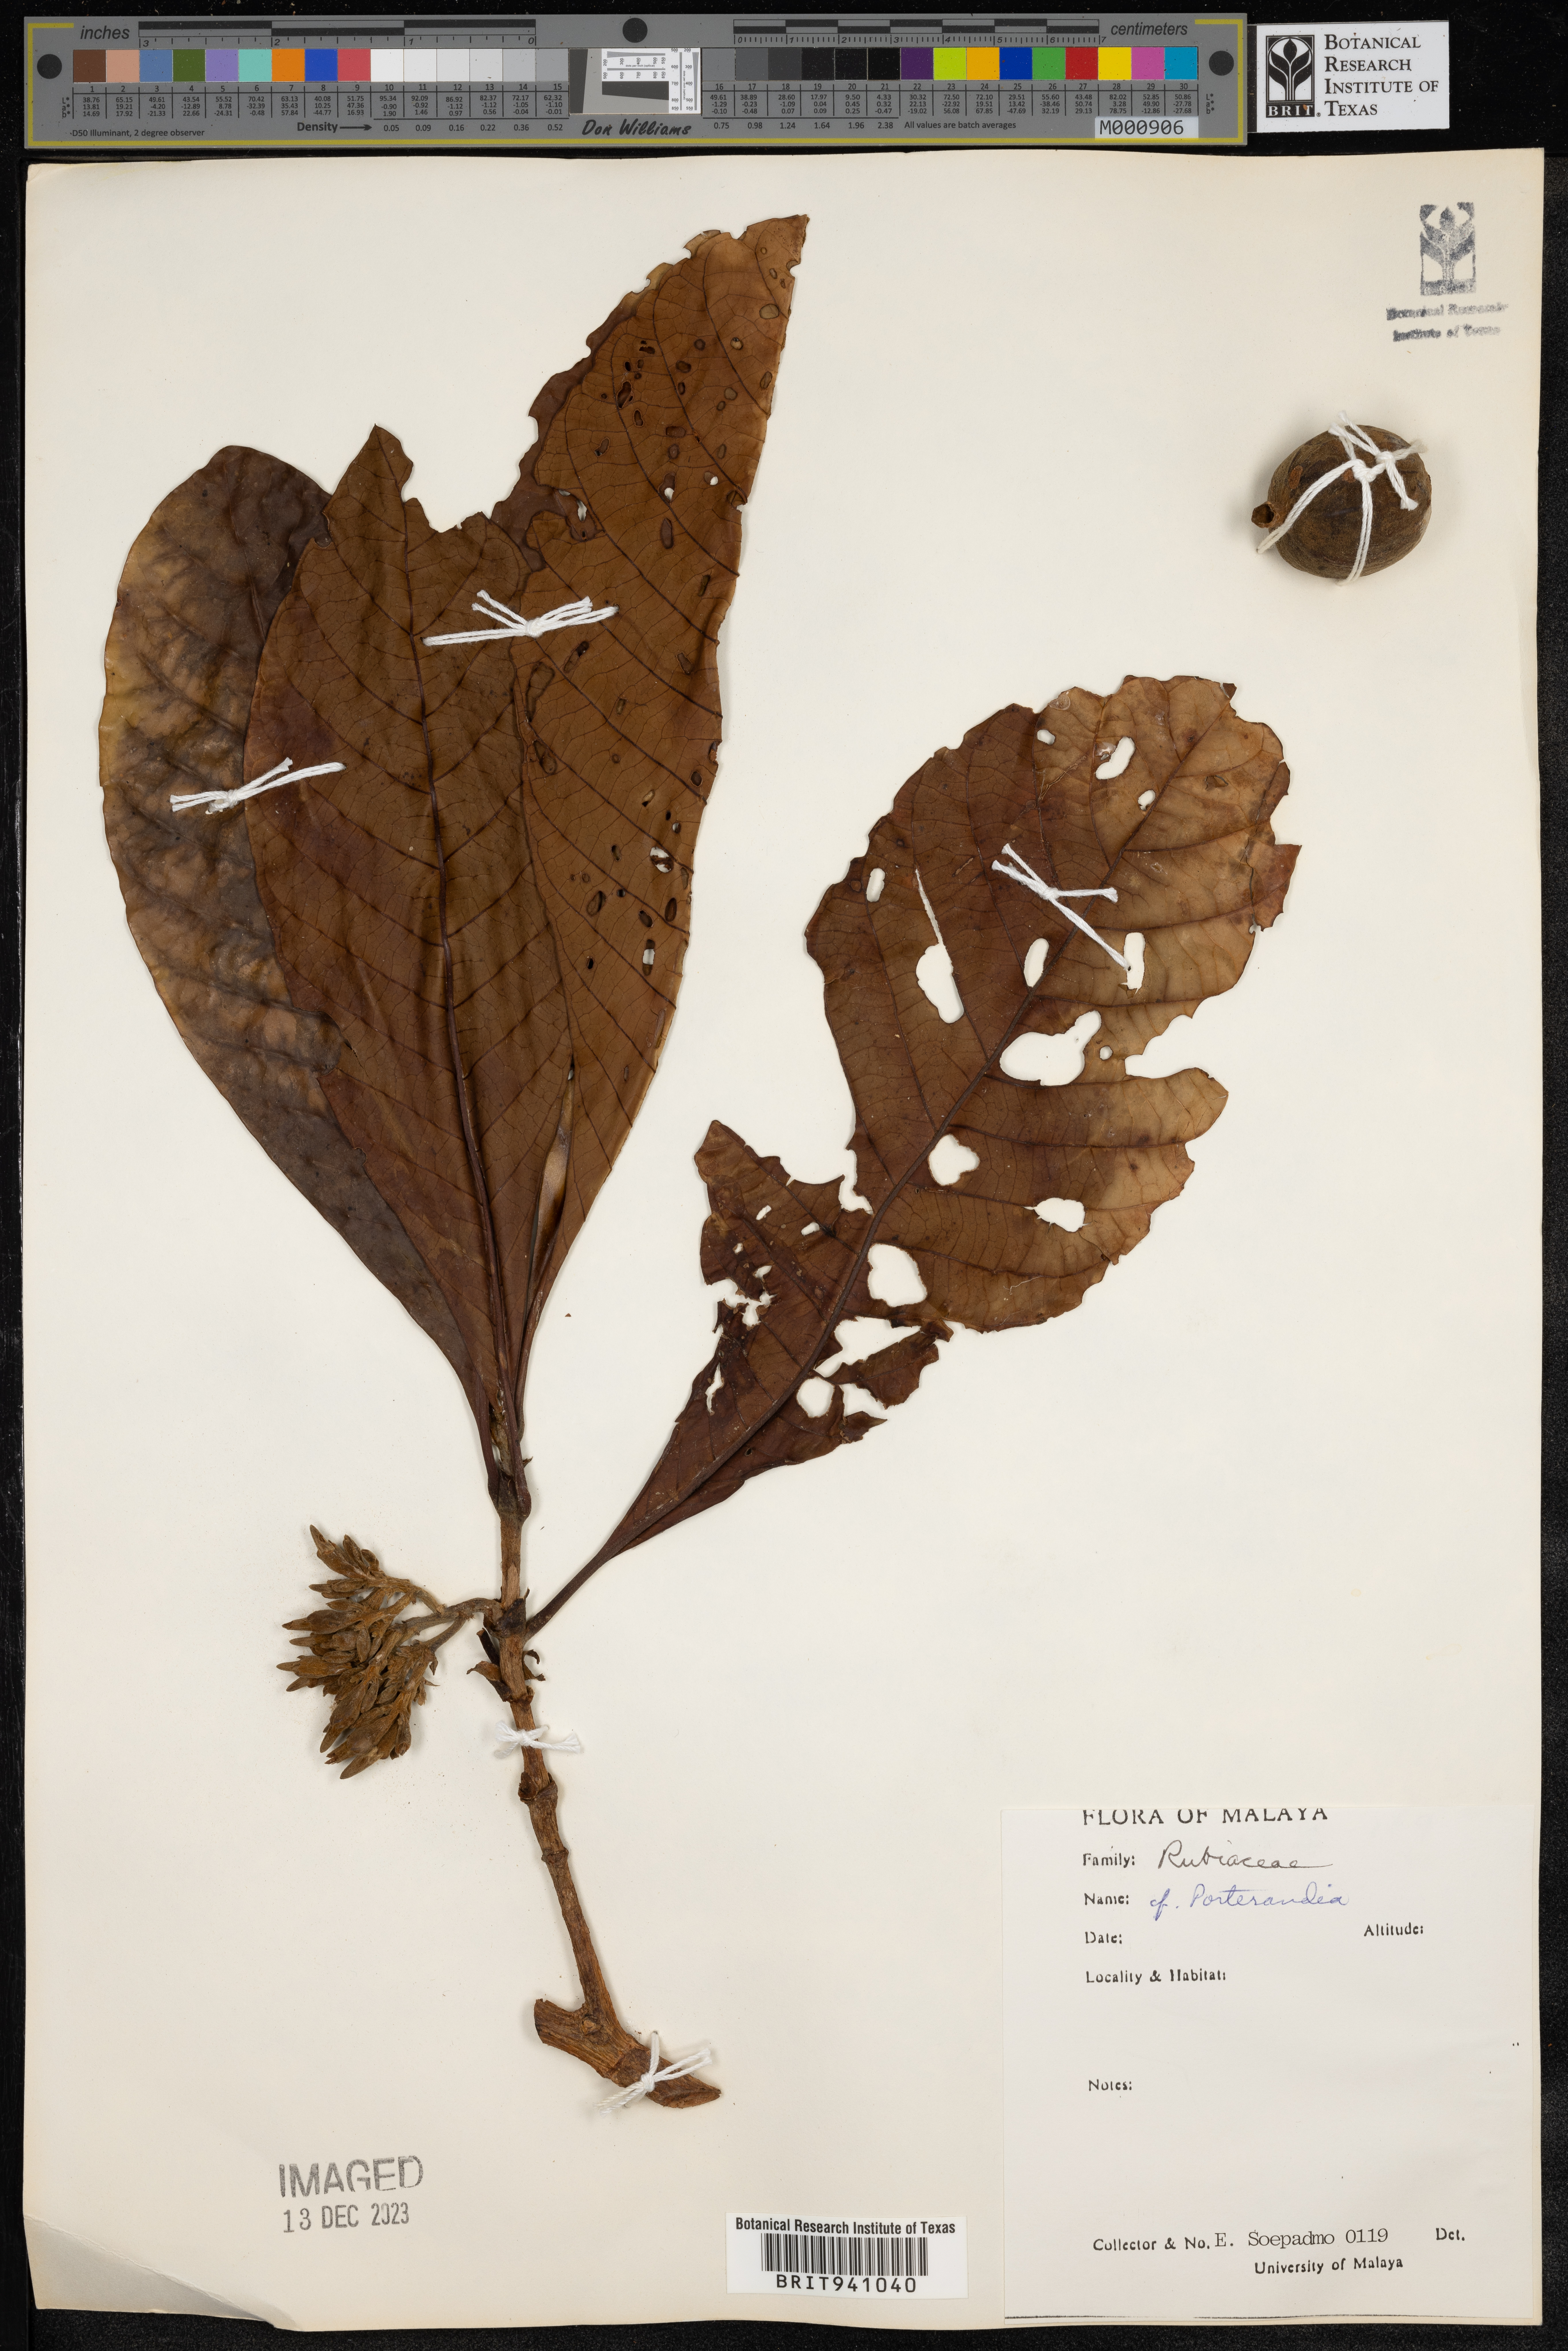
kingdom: Plantae
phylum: Tracheophyta
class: Magnoliopsida
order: Gentianales
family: Rubiaceae
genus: Porterandia
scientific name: Porterandia
